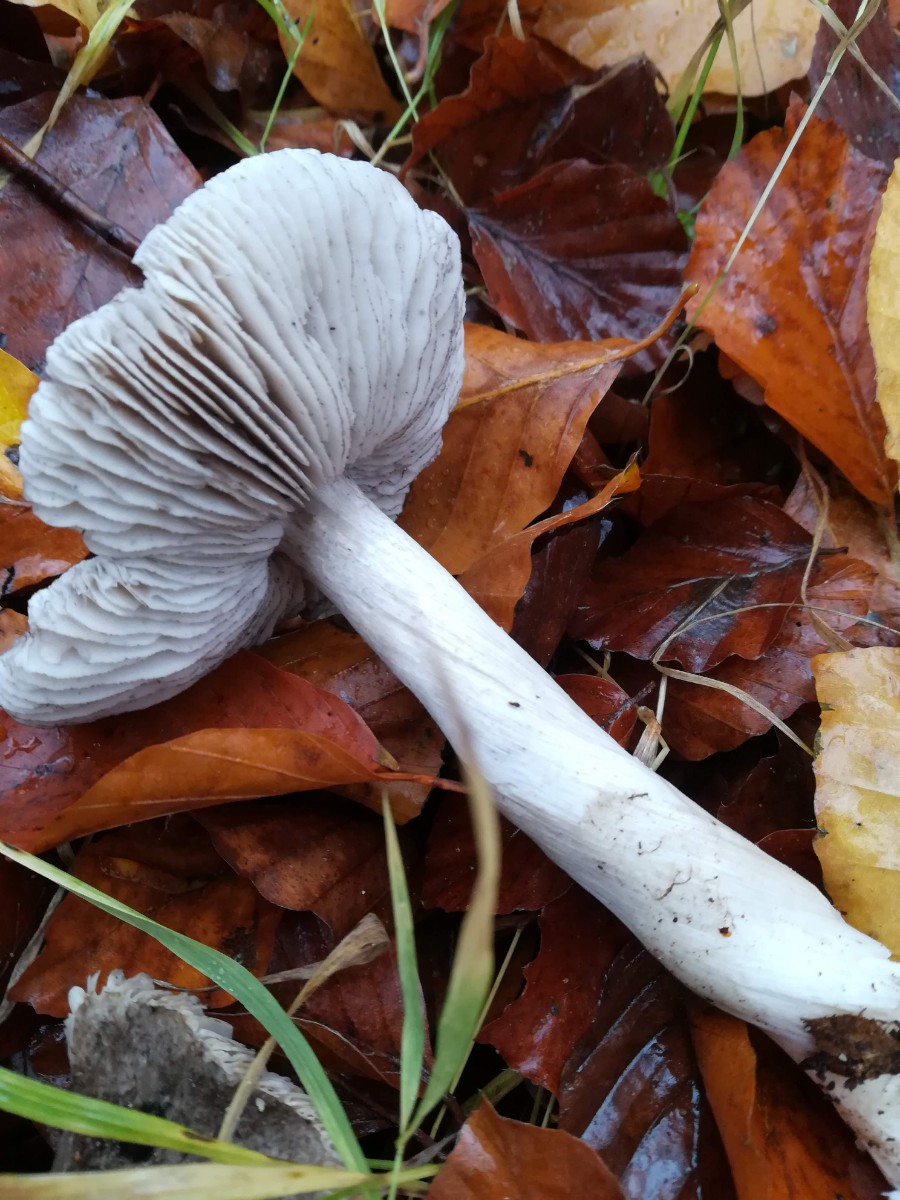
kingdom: Fungi
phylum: Basidiomycota
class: Agaricomycetes
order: Agaricales
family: Tricholomataceae
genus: Tricholoma
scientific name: Tricholoma sciodes
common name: stribet ridderhat
